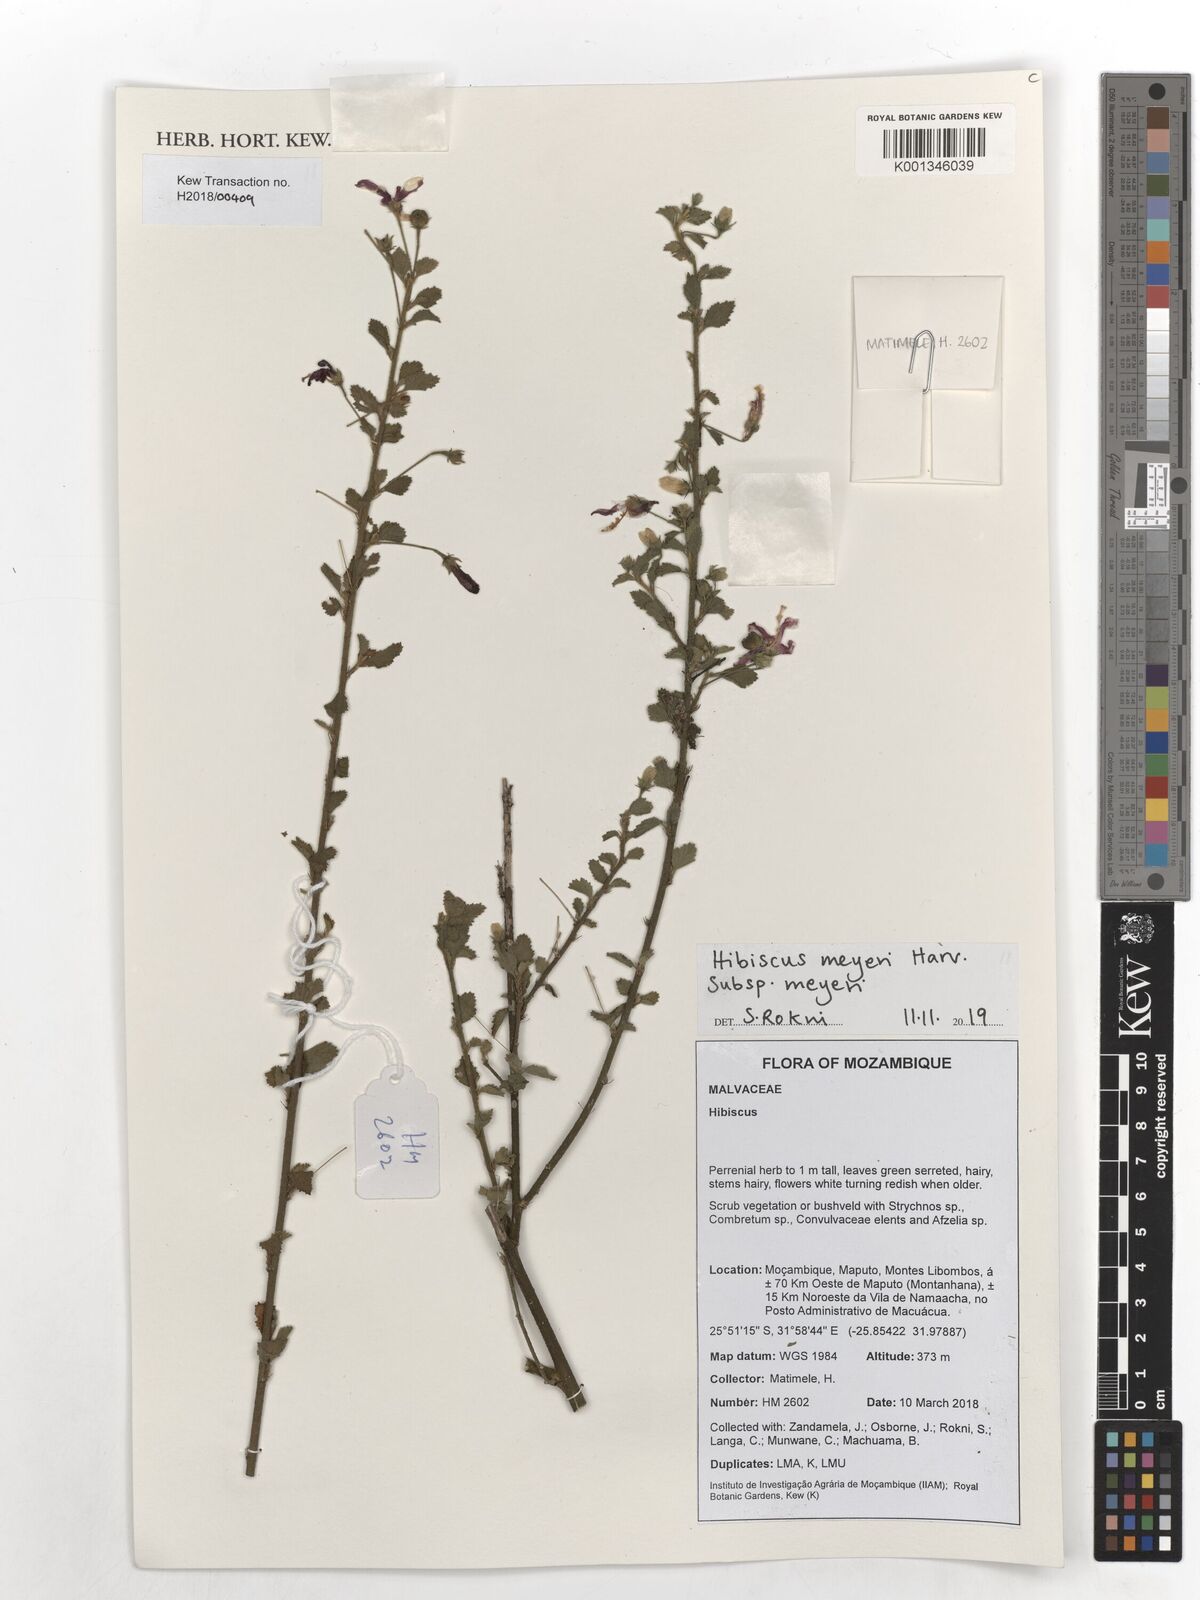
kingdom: Plantae
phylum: Tracheophyta
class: Magnoliopsida
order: Malvales
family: Malvaceae
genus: Hibiscus
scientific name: Hibiscus meyeri
